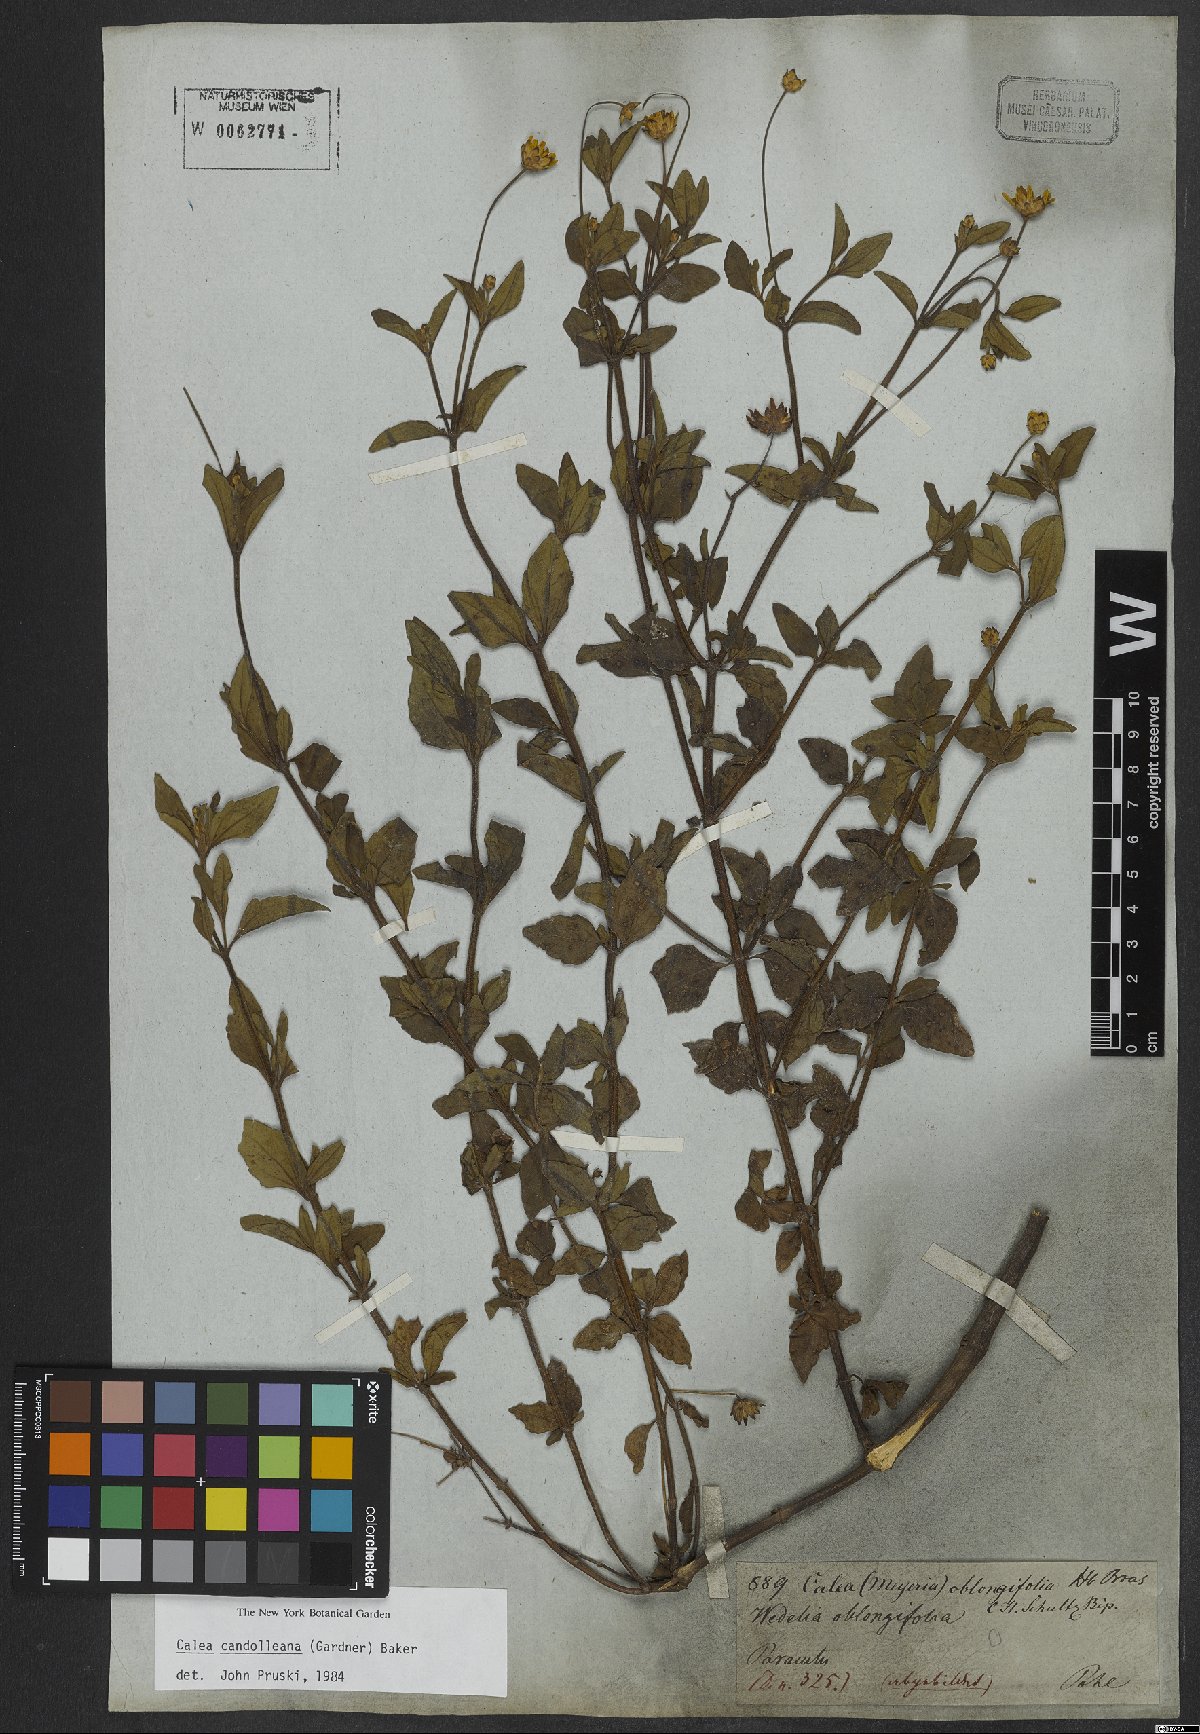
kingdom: Plantae
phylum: Tracheophyta
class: Magnoliopsida
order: Asterales
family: Asteraceae
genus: Calea
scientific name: Calea candolleana
